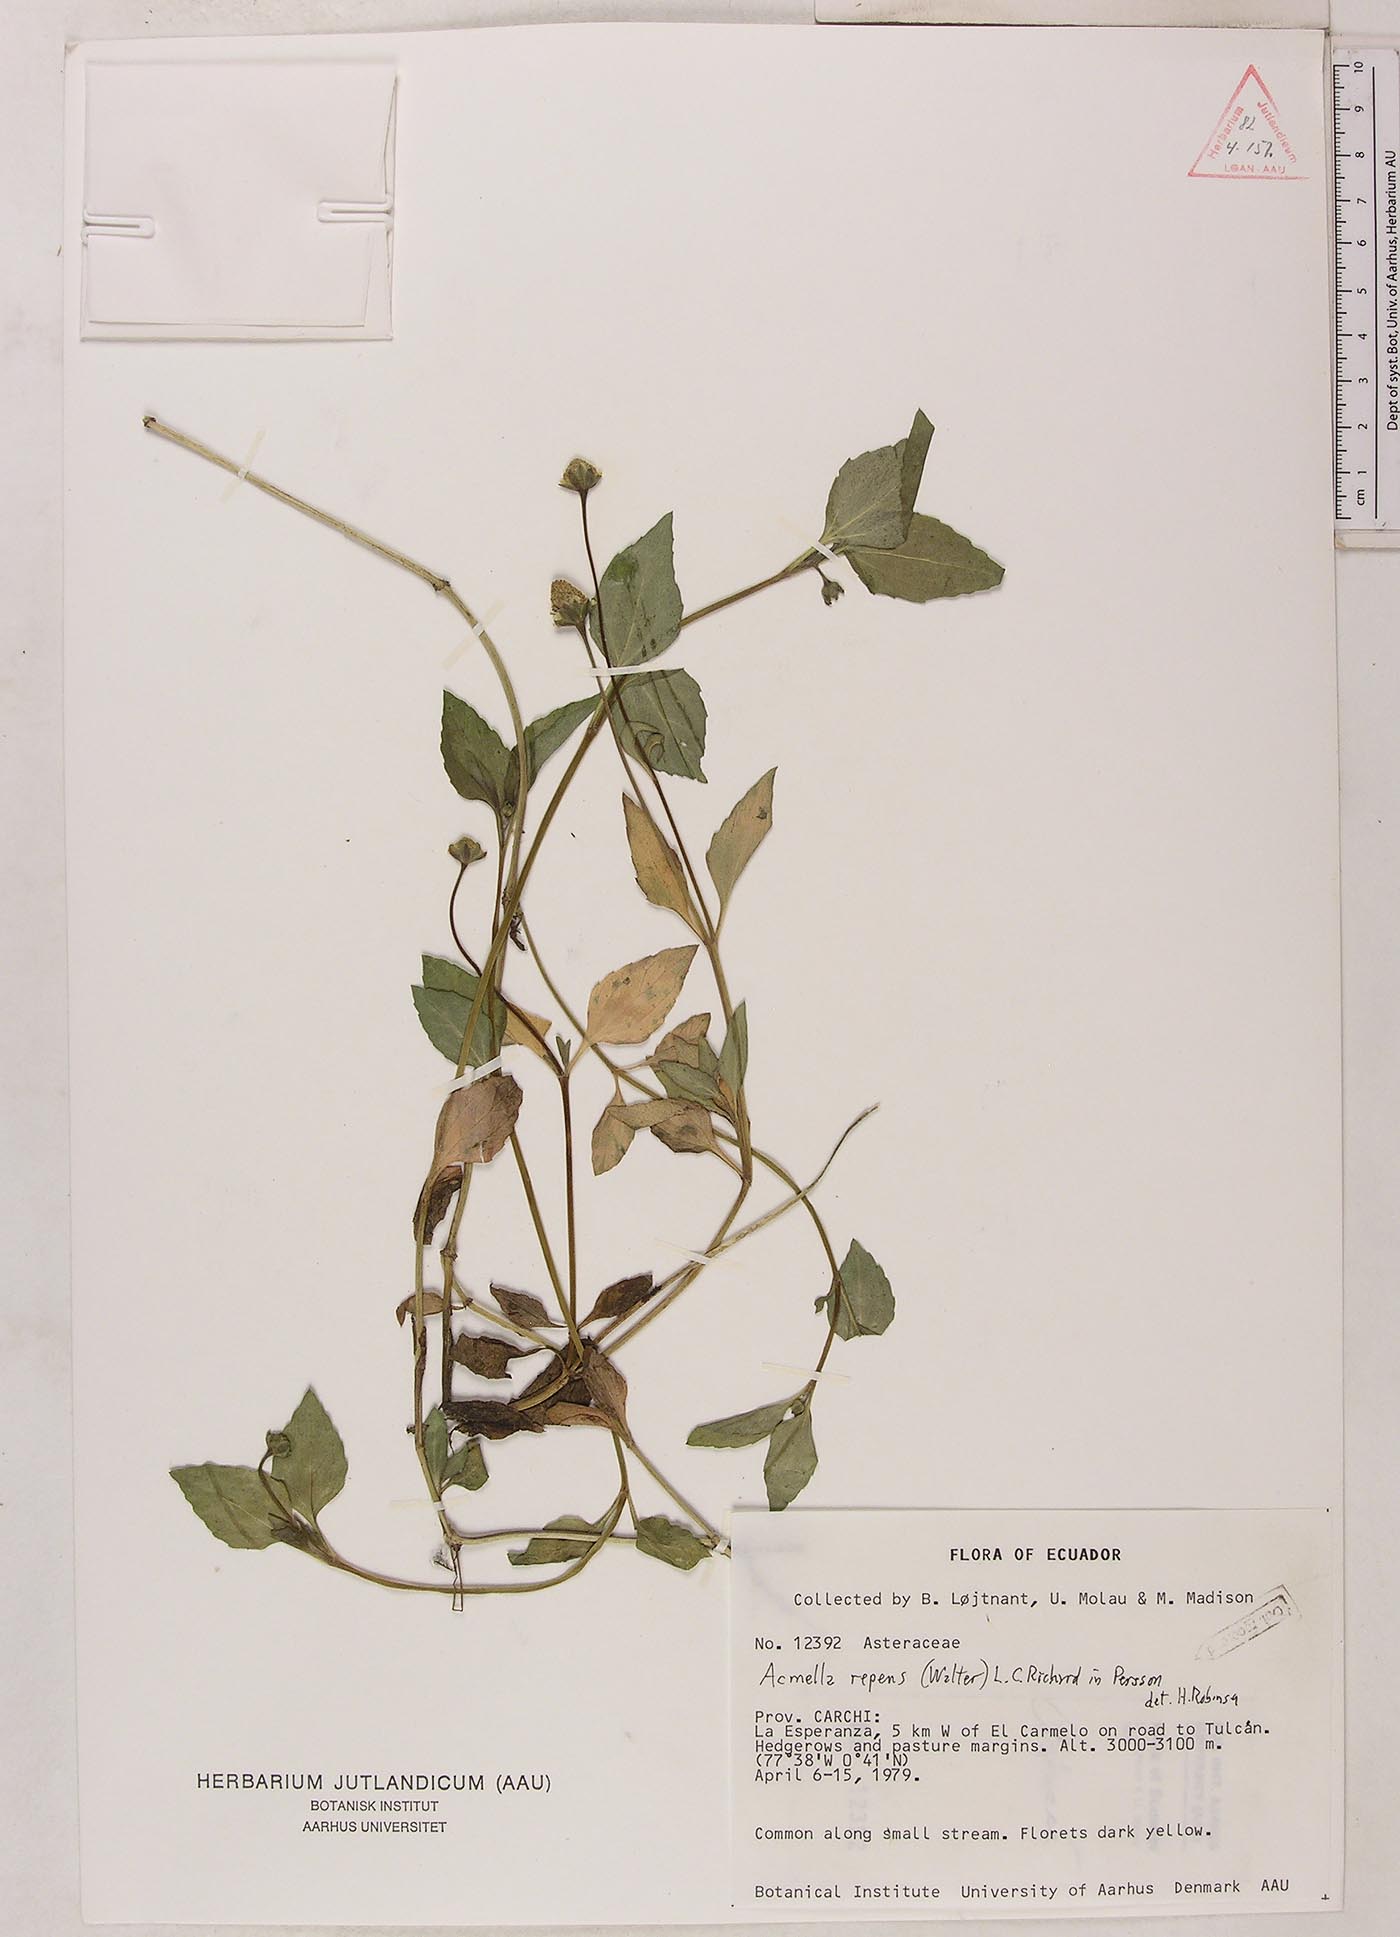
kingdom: Plantae
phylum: Tracheophyta
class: Magnoliopsida
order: Asterales
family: Asteraceae
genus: Acmella
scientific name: Acmella repens
